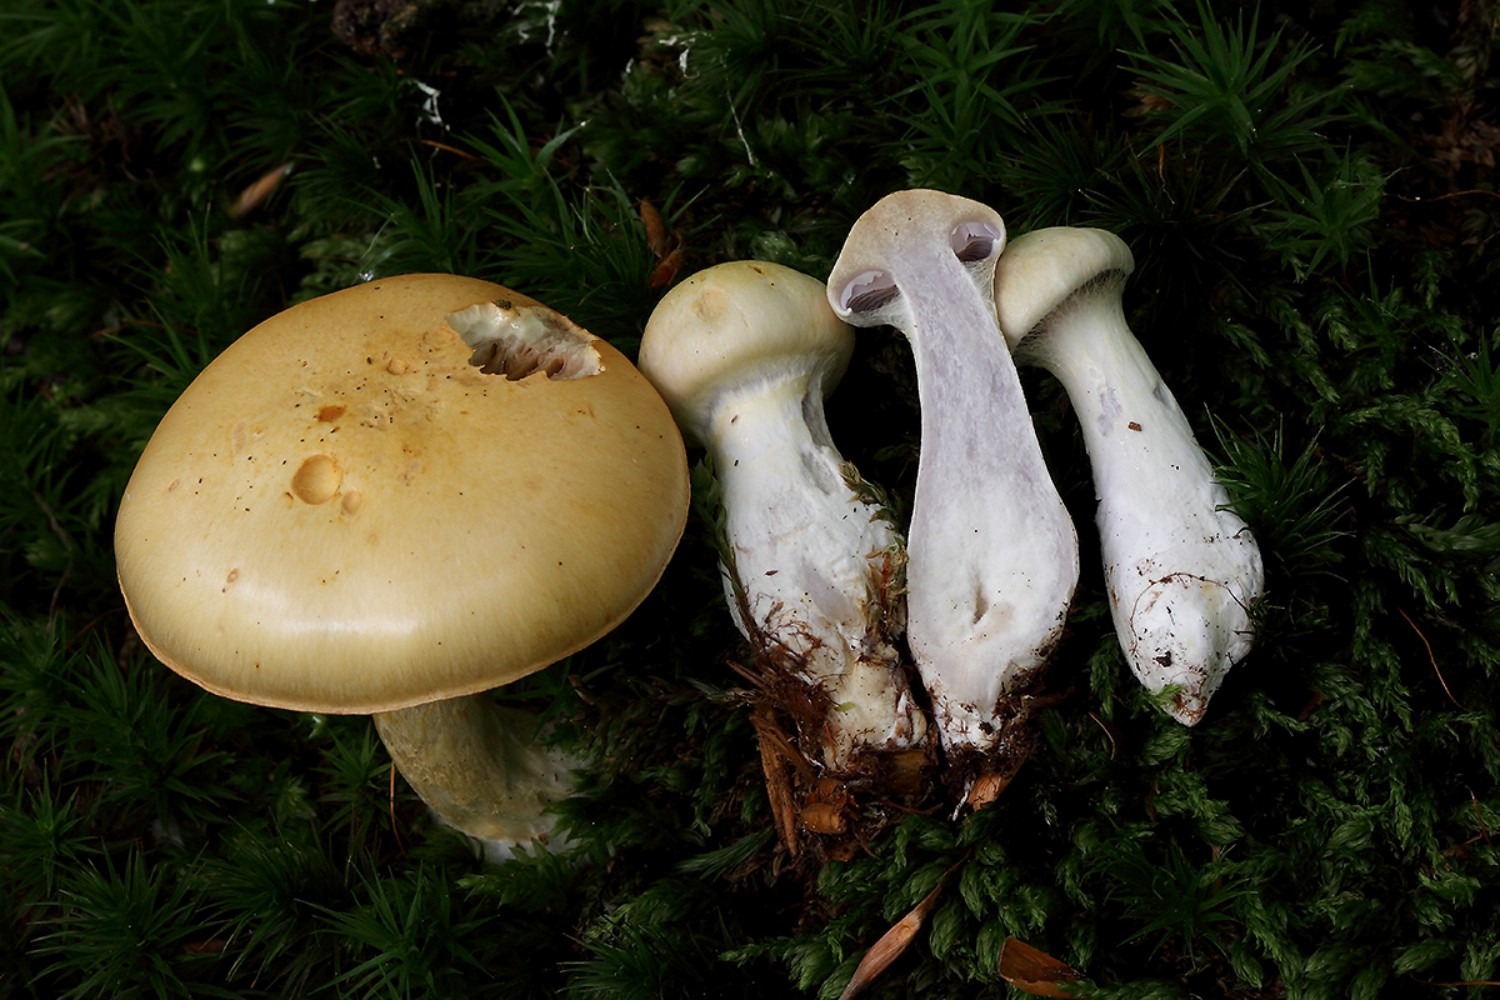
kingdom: Fungi
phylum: Basidiomycota
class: Agaricomycetes
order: Agaricales
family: Cortinariaceae
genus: Cortinarius
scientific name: Cortinarius delibutus
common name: gul slørhat
